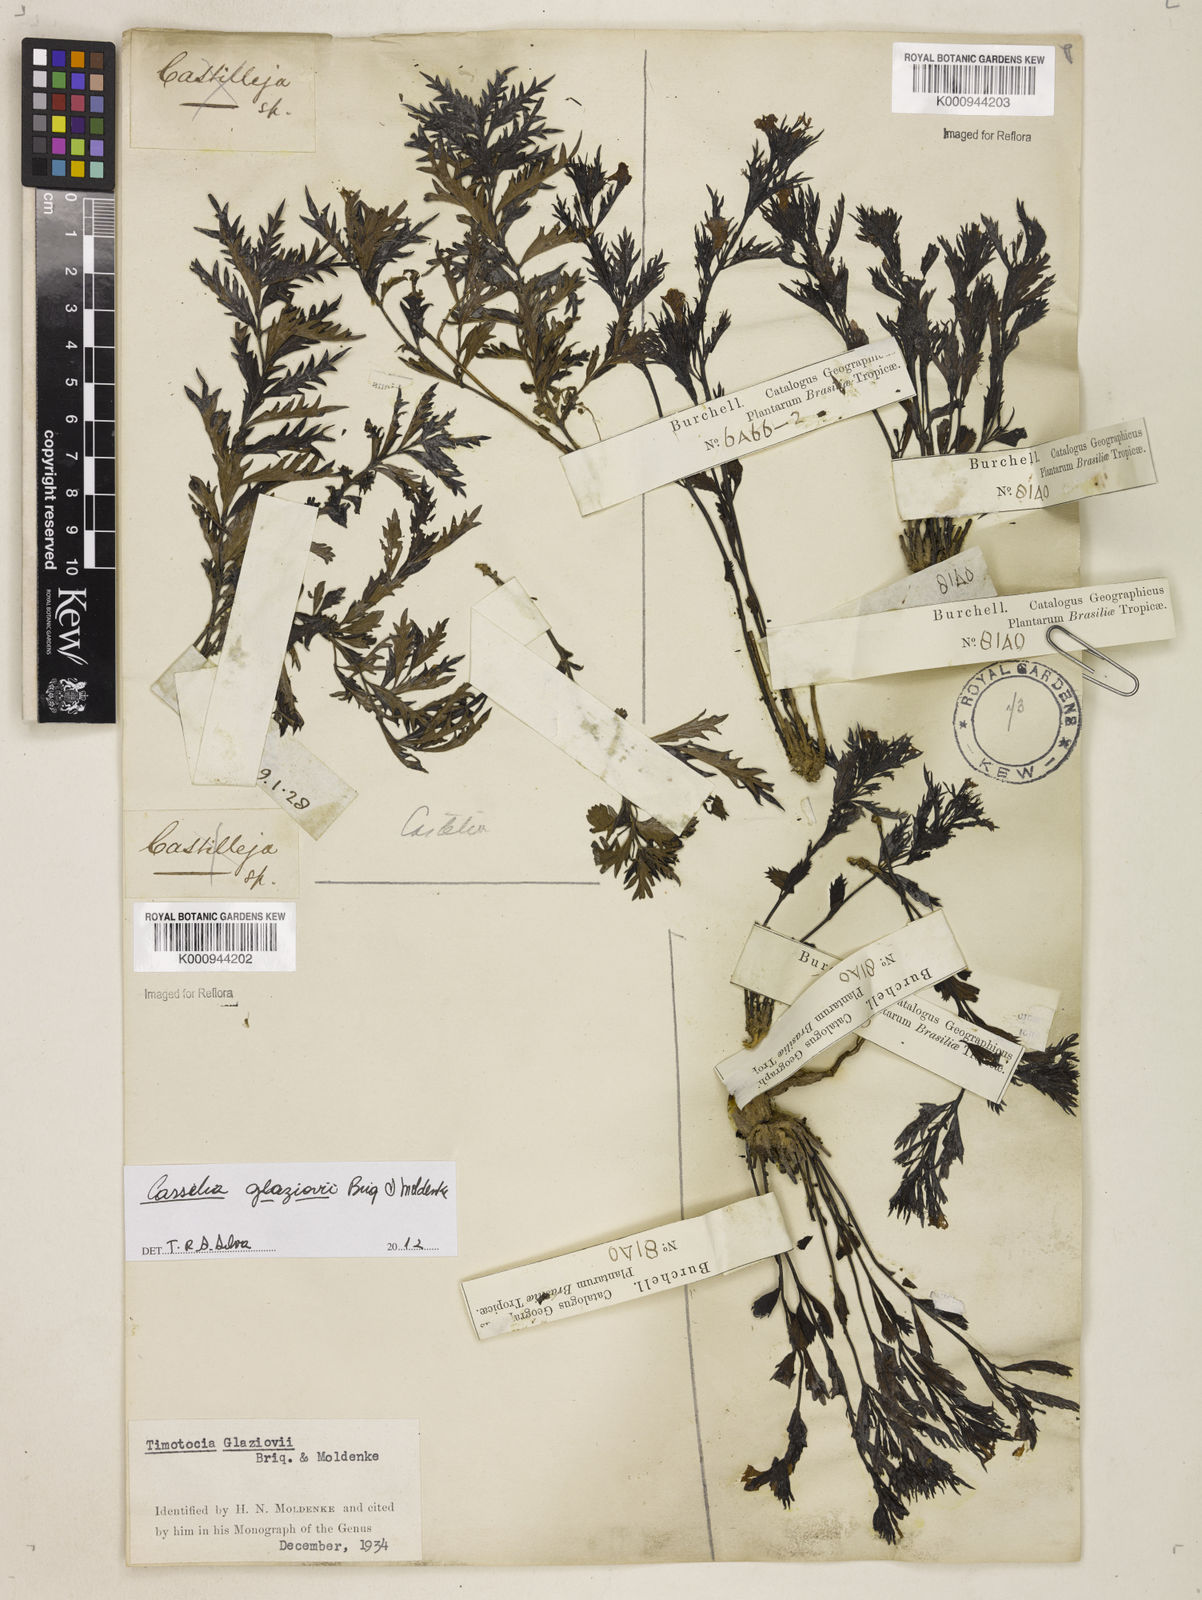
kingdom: Plantae
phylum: Tracheophyta
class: Magnoliopsida
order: Lamiales
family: Verbenaceae
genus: Casselia
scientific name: Casselia glaziovii
